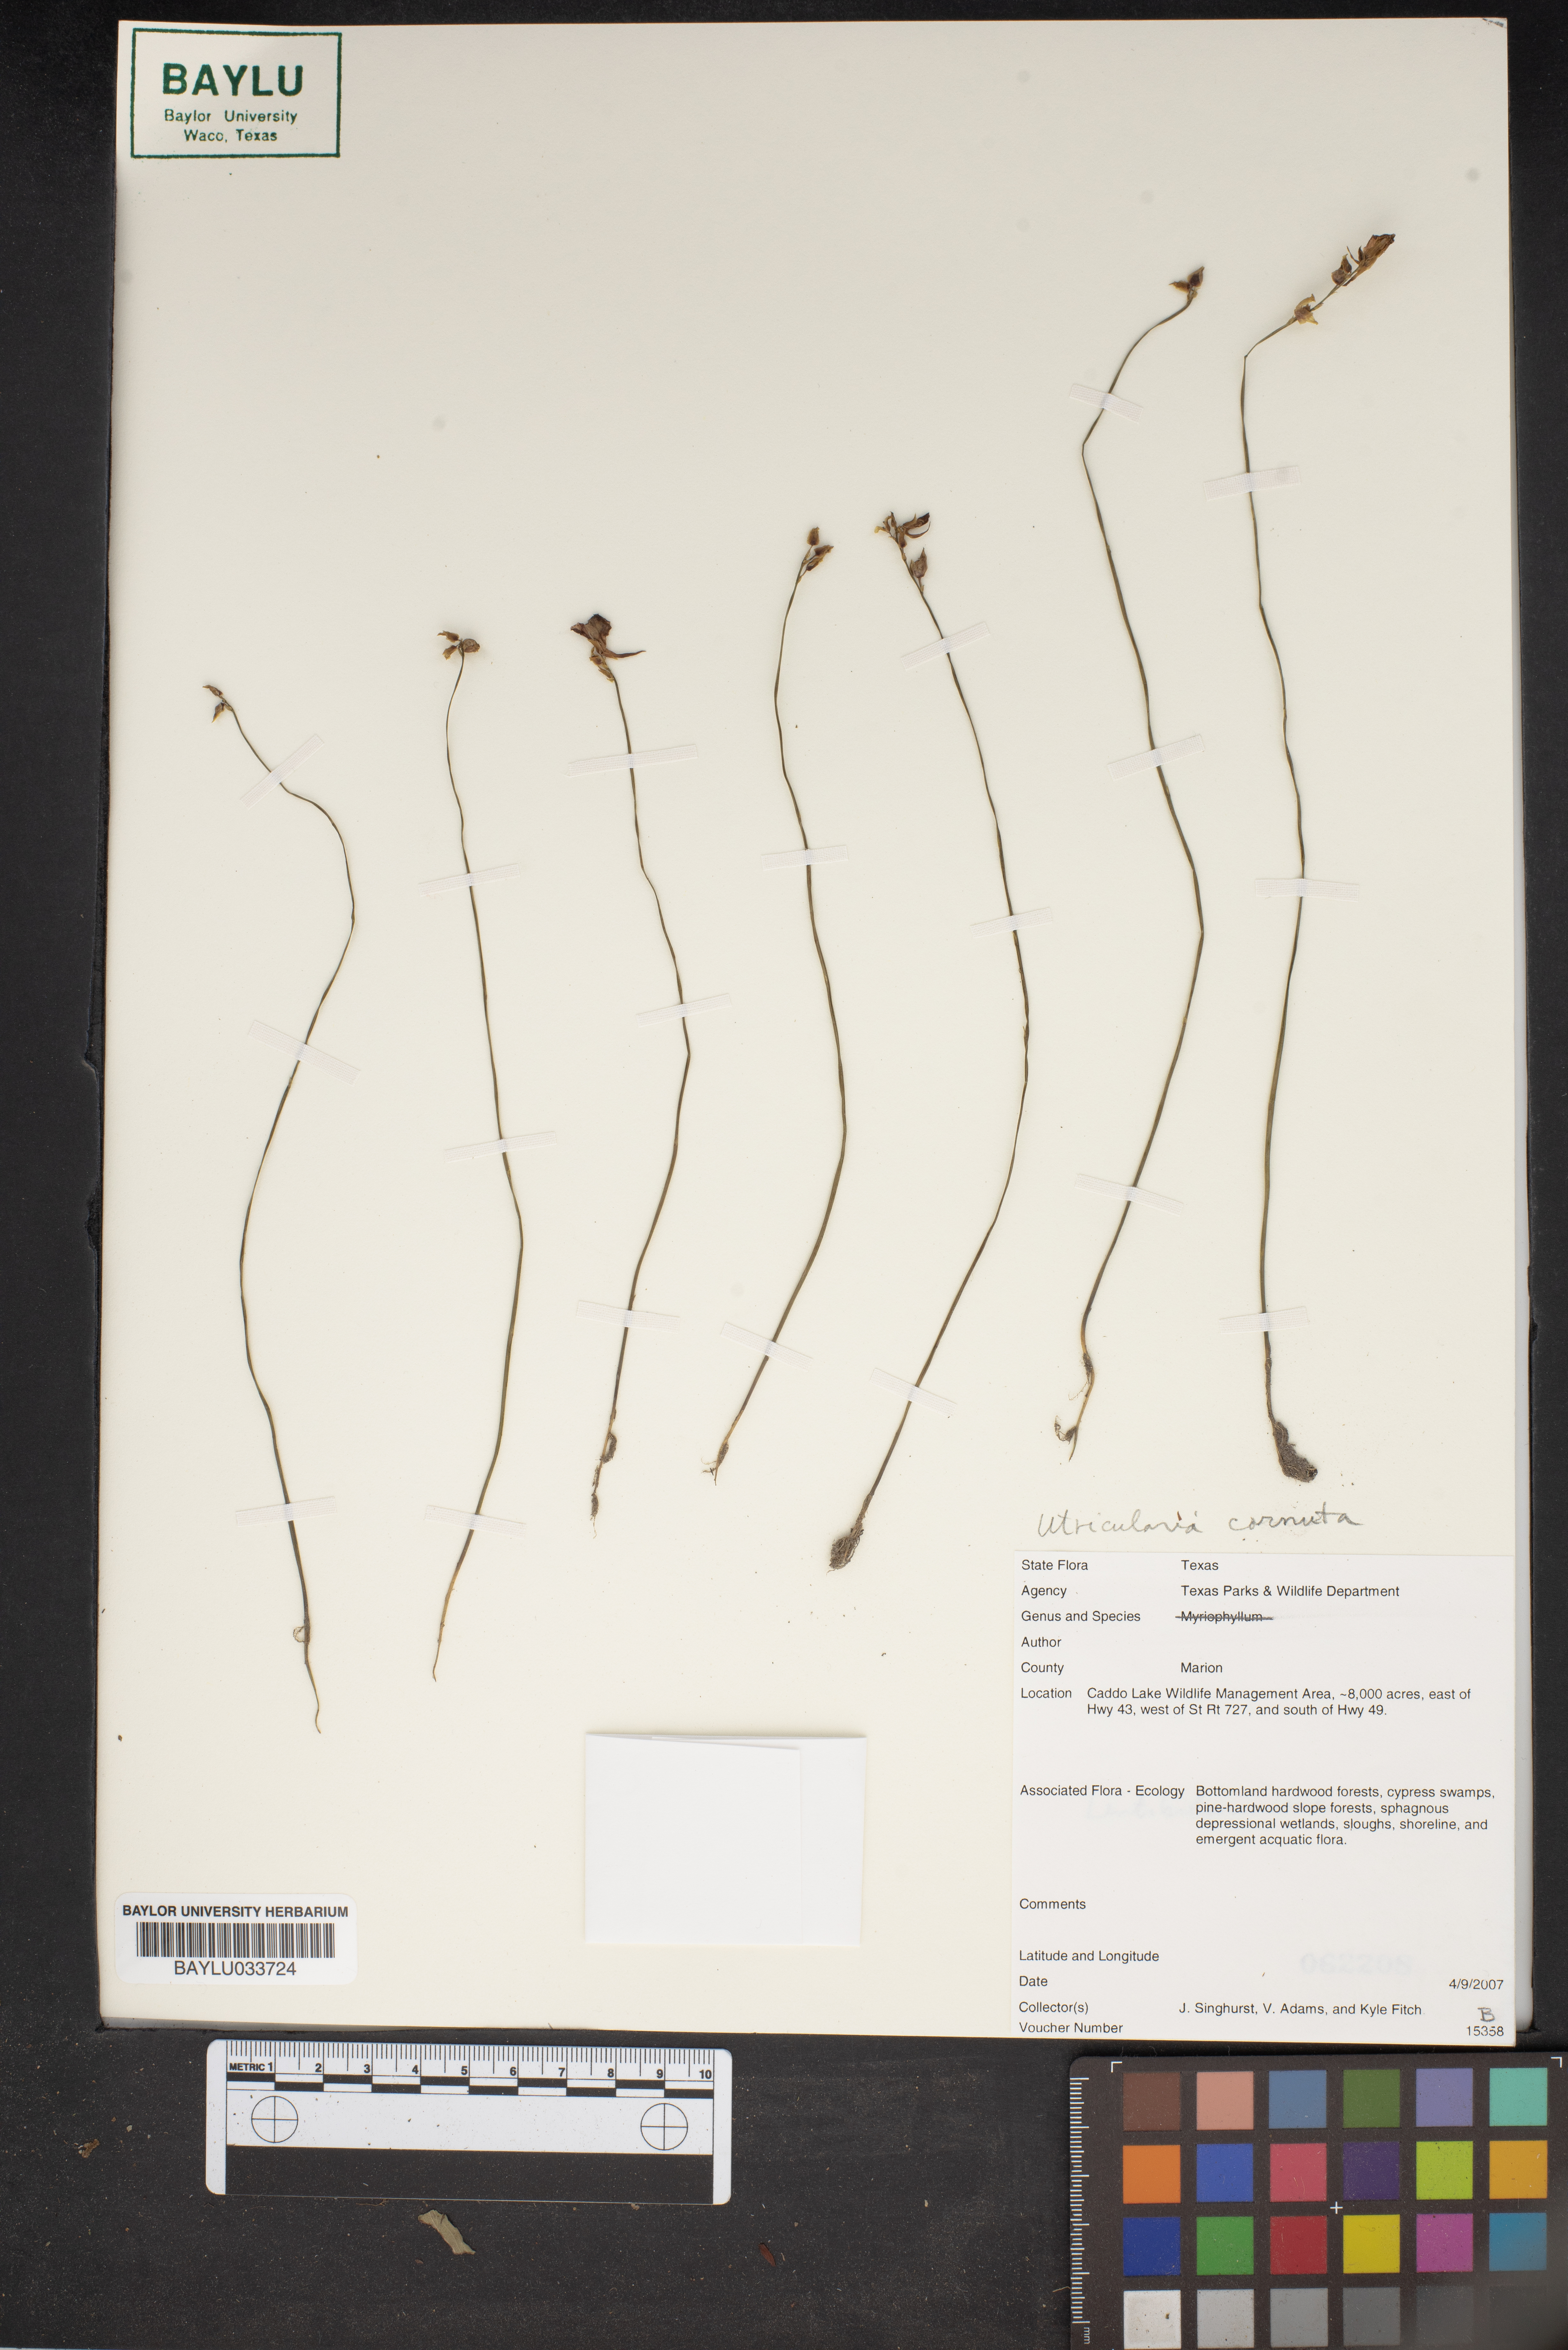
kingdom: Plantae
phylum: Tracheophyta
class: Magnoliopsida
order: Lamiales
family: Lentibulariaceae
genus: Utricularia
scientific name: Utricularia cornuta
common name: Horned bladderwort
